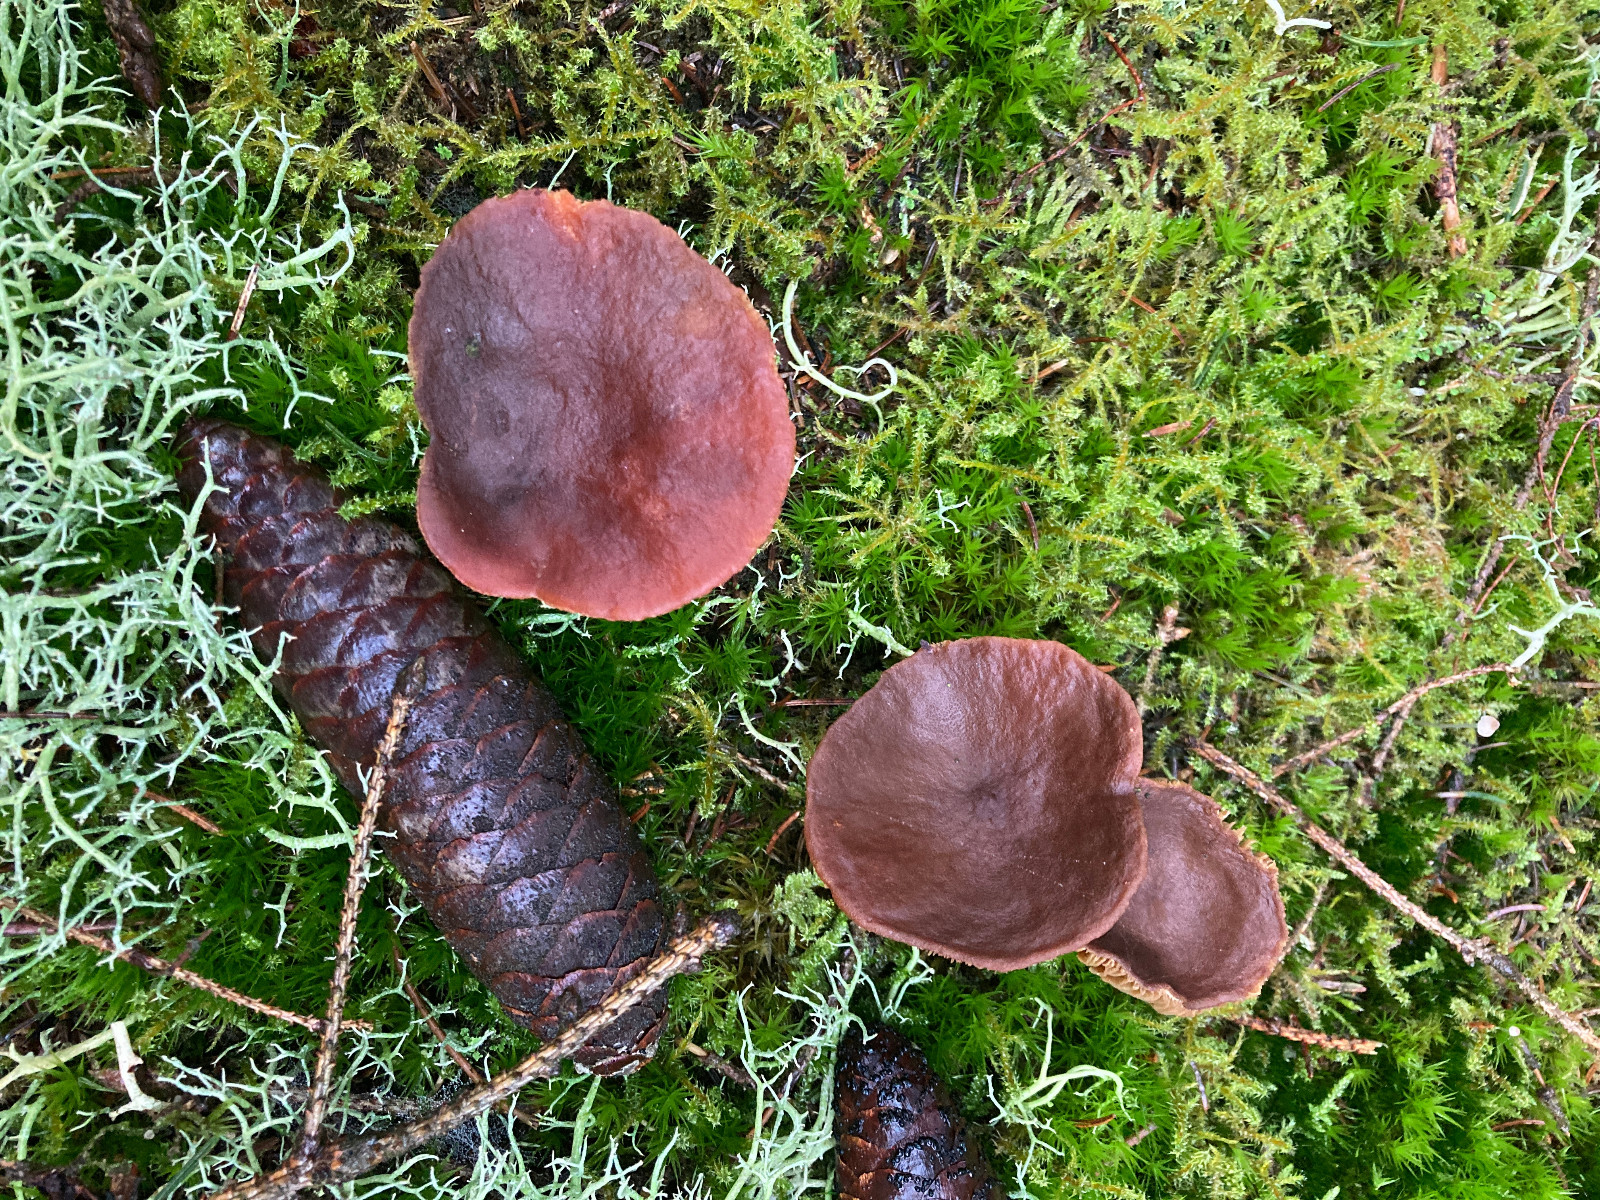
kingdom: Fungi
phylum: Basidiomycota
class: Agaricomycetes
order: Russulales
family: Russulaceae
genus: Lactarius
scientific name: Lactarius hepaticus
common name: leverbrun mælkehat
